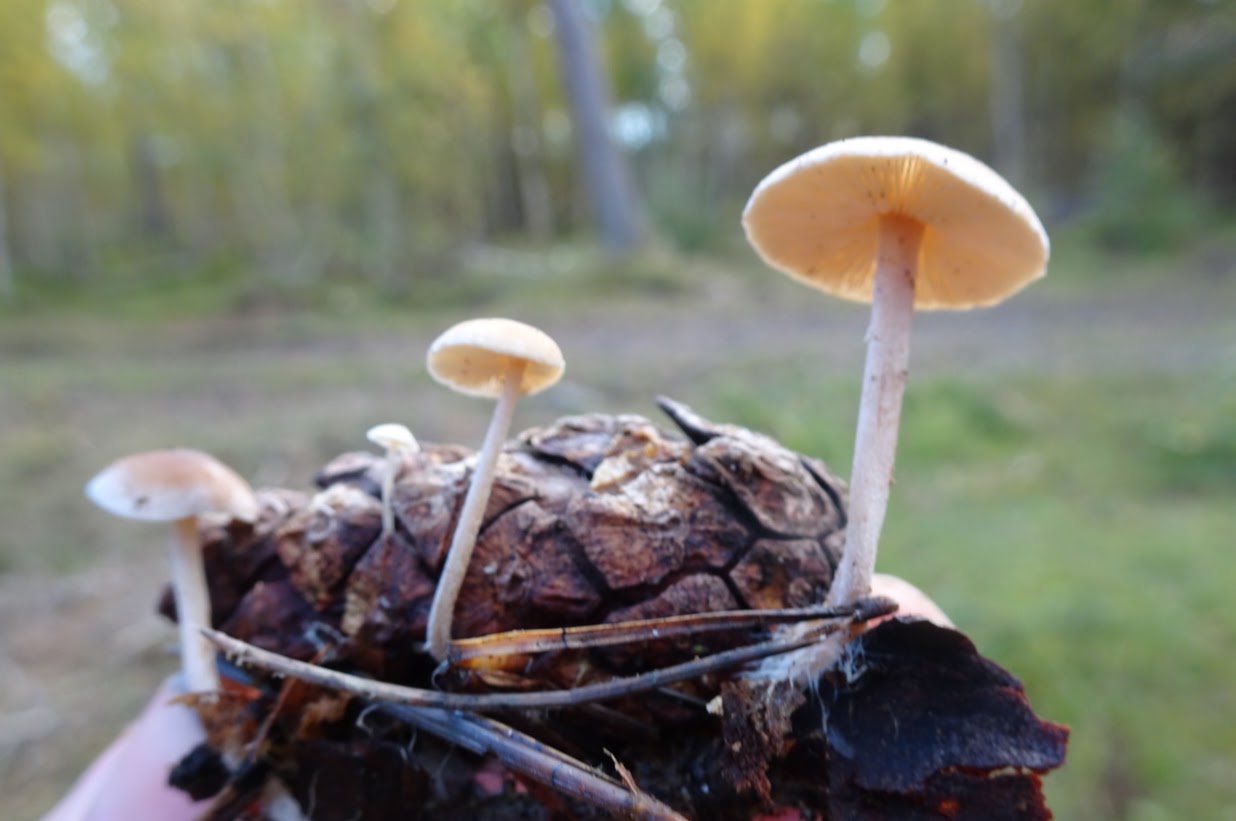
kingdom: Fungi
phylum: Basidiomycota
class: Agaricomycetes
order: Agaricales
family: Marasmiaceae
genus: Baeospora
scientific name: Baeospora myosura
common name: koglebruskhat
